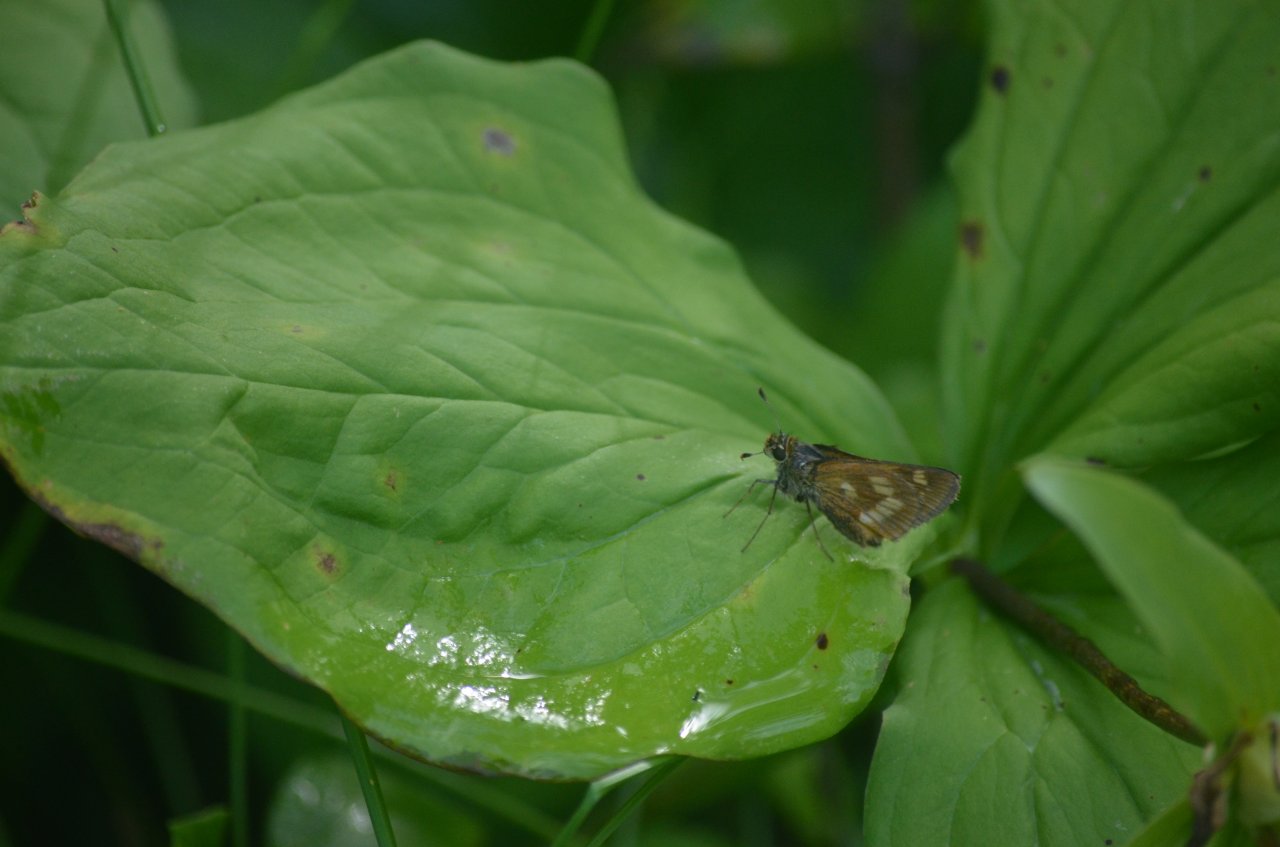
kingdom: Animalia
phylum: Arthropoda
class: Insecta
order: Lepidoptera
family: Hesperiidae
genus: Polites
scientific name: Polites
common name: Long Dash Skipper
